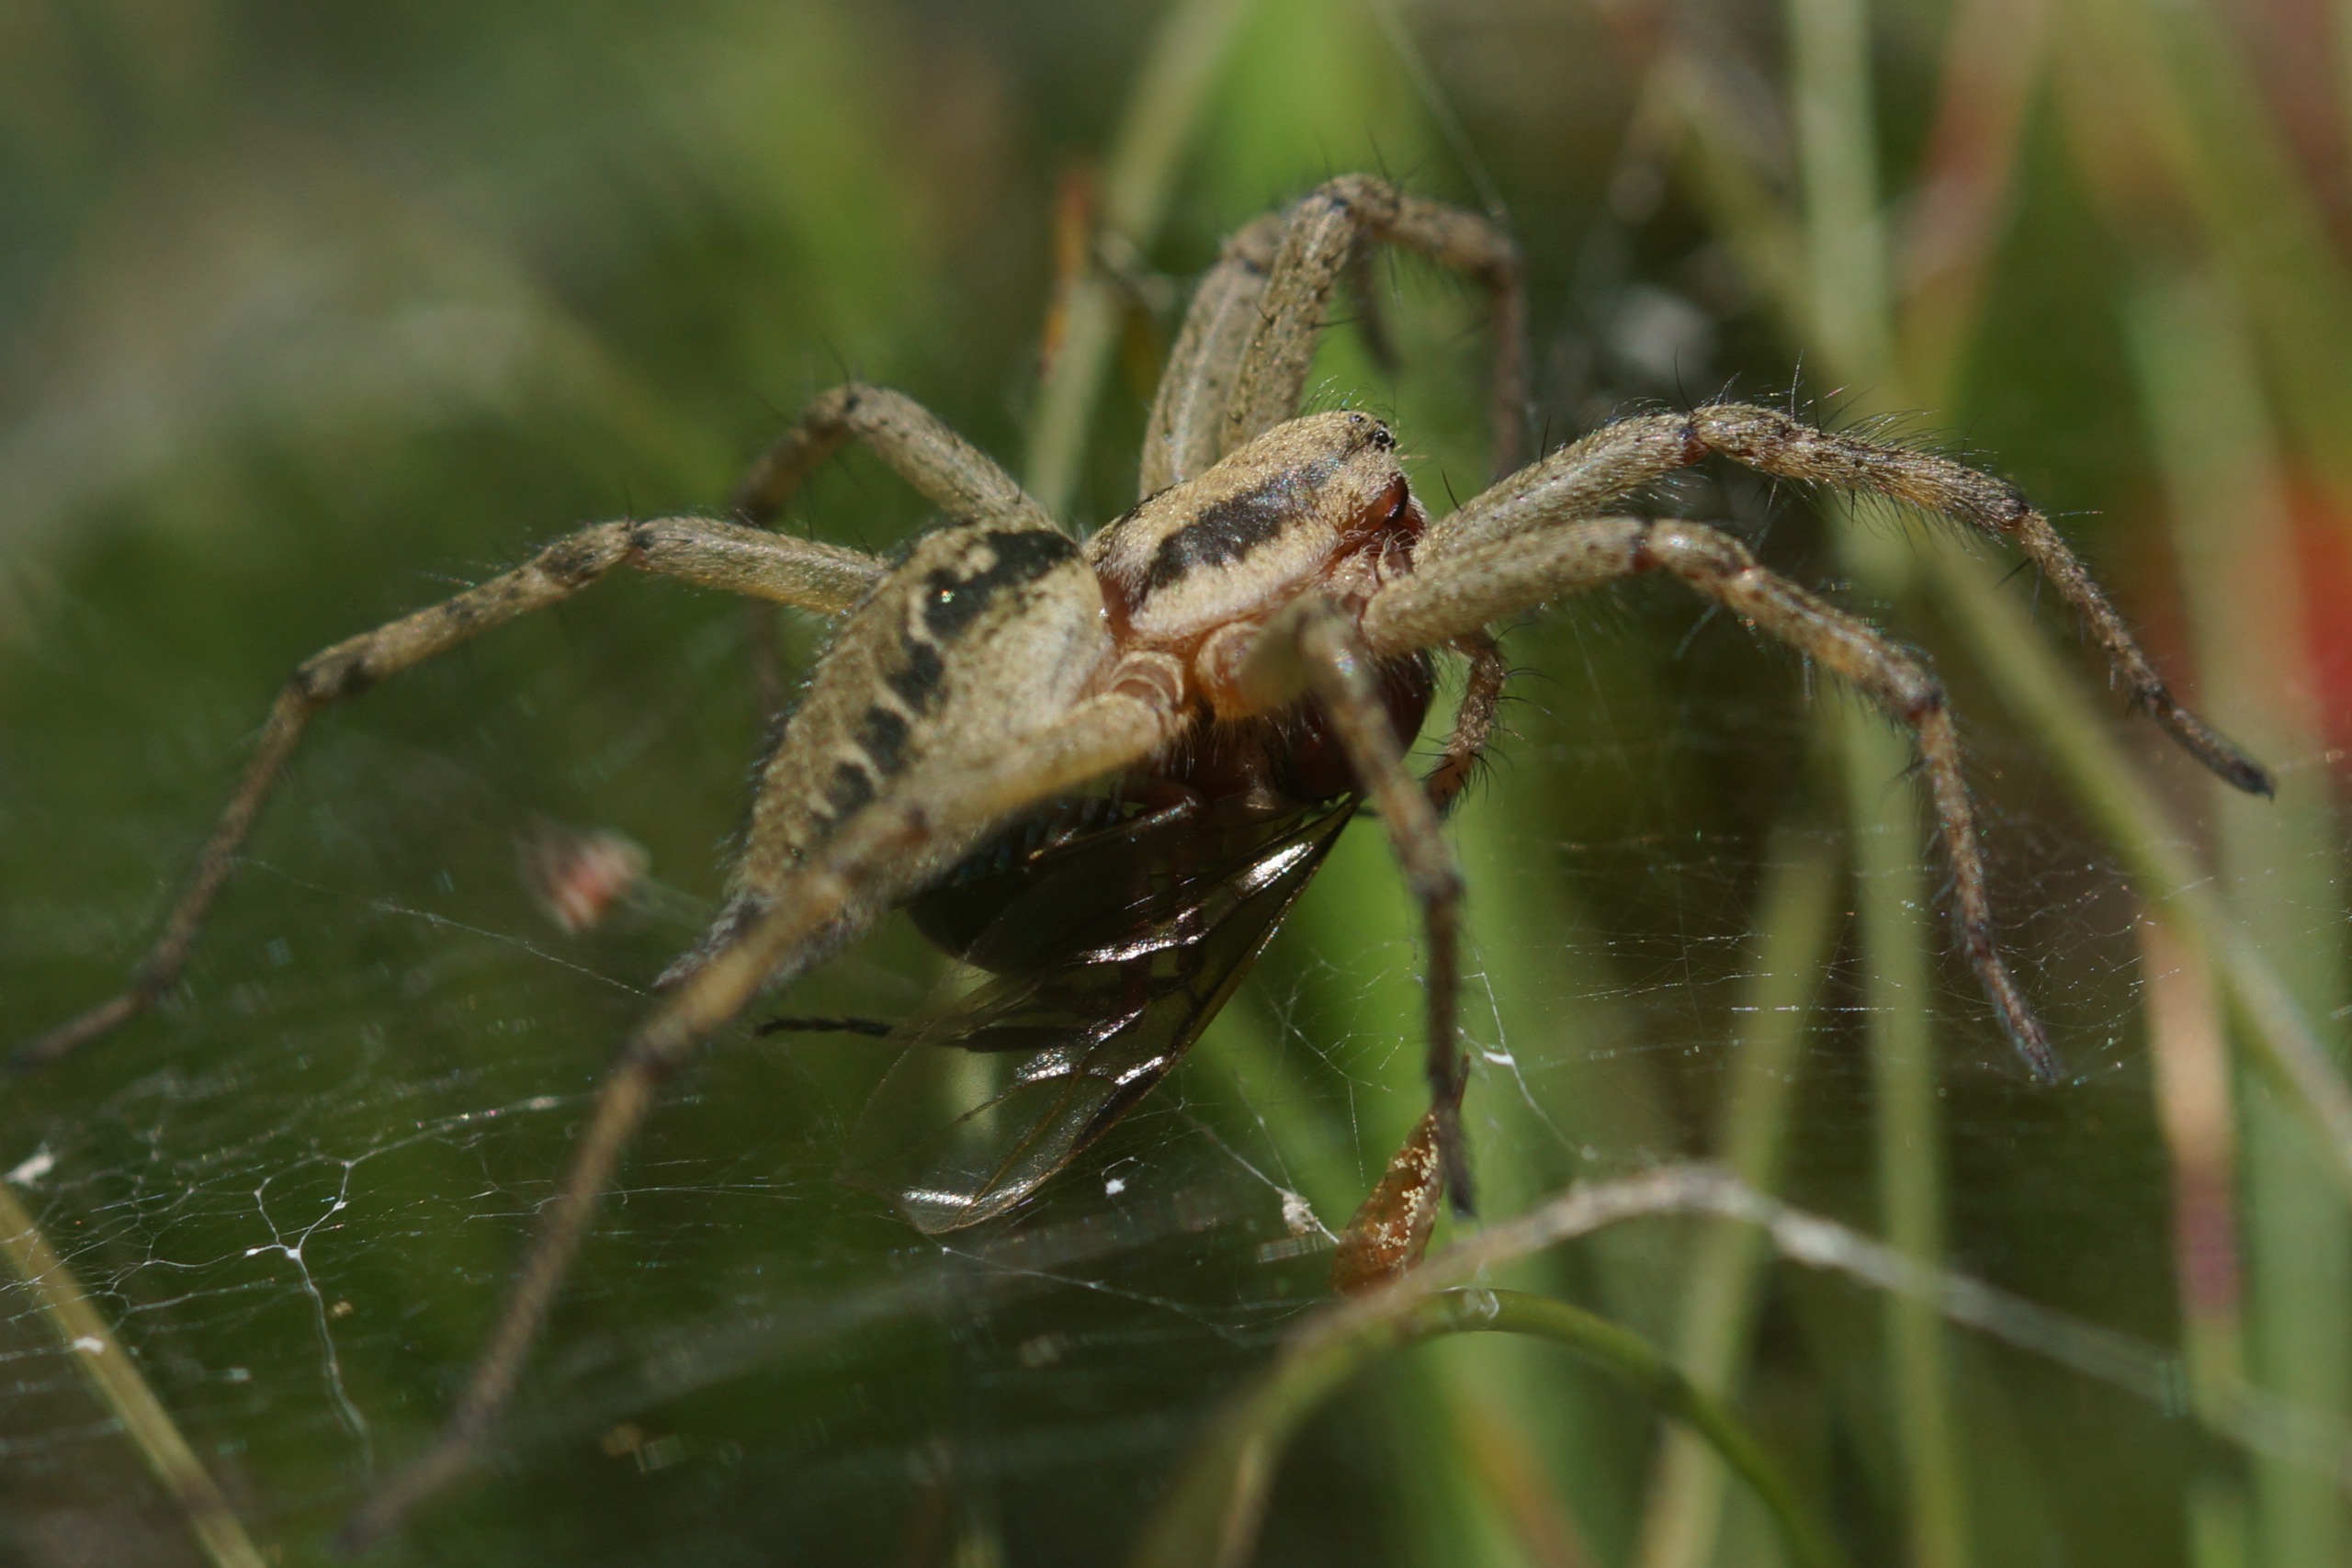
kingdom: Animalia
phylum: Arthropoda
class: Arachnida
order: Araneae
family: Agelenidae
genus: Agelena
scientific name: Agelena labyrinthica
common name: Labyrintedderkop
